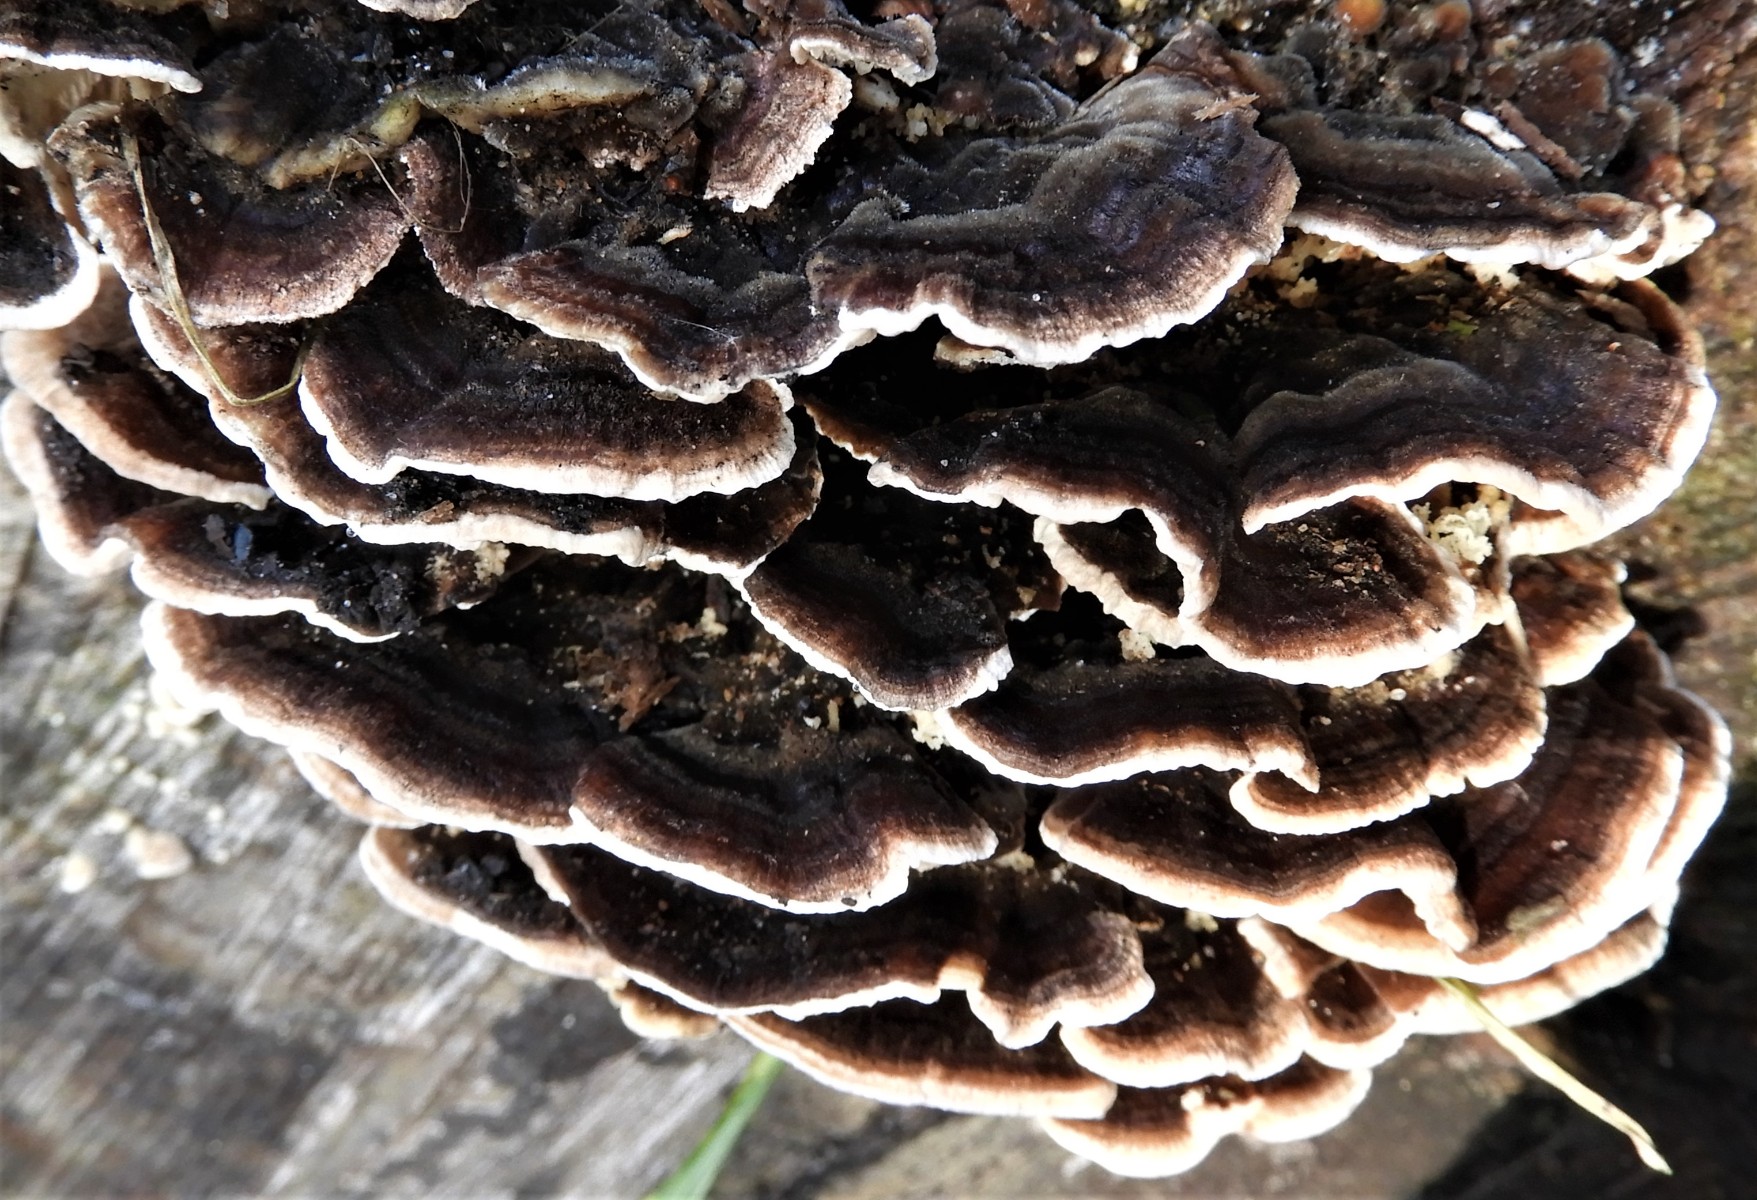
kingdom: Fungi
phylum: Basidiomycota
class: Agaricomycetes
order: Polyporales
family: Polyporaceae
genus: Trametes
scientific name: Trametes versicolor
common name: broget læderporesvamp
